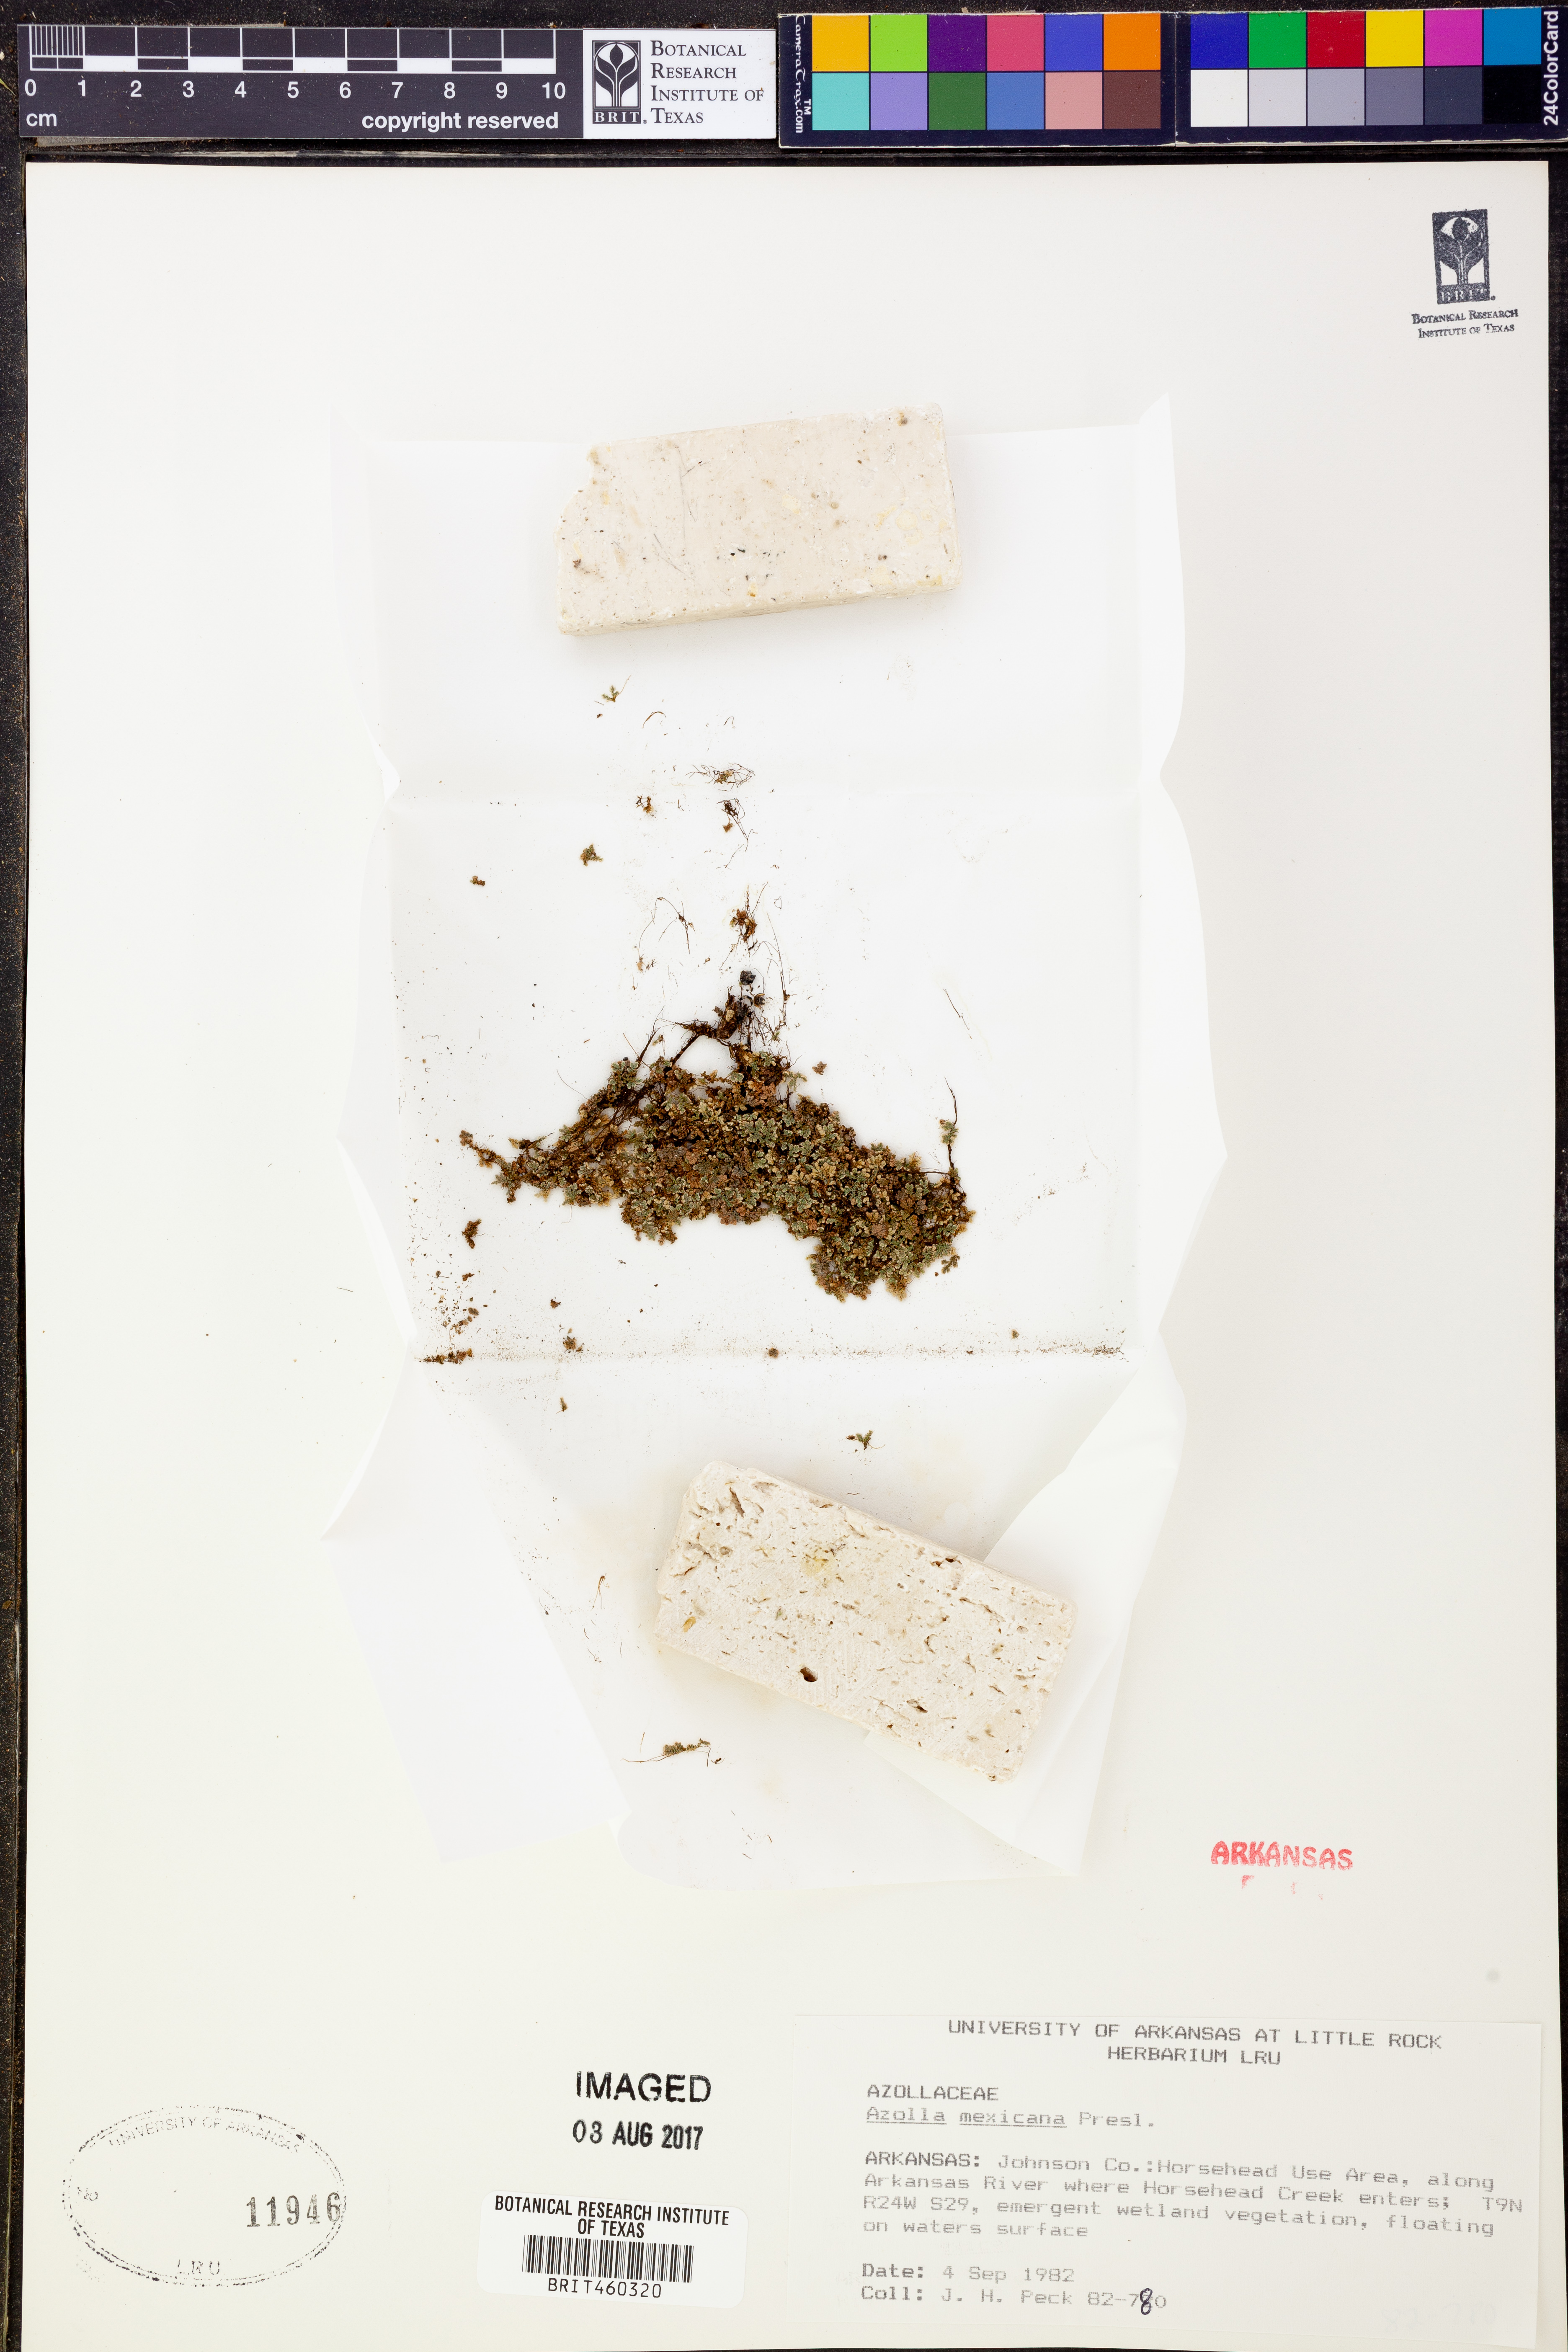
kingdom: Plantae
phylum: Tracheophyta
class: Polypodiopsida
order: Salviniales
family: Salviniaceae
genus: Azolla
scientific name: Azolla cristata
